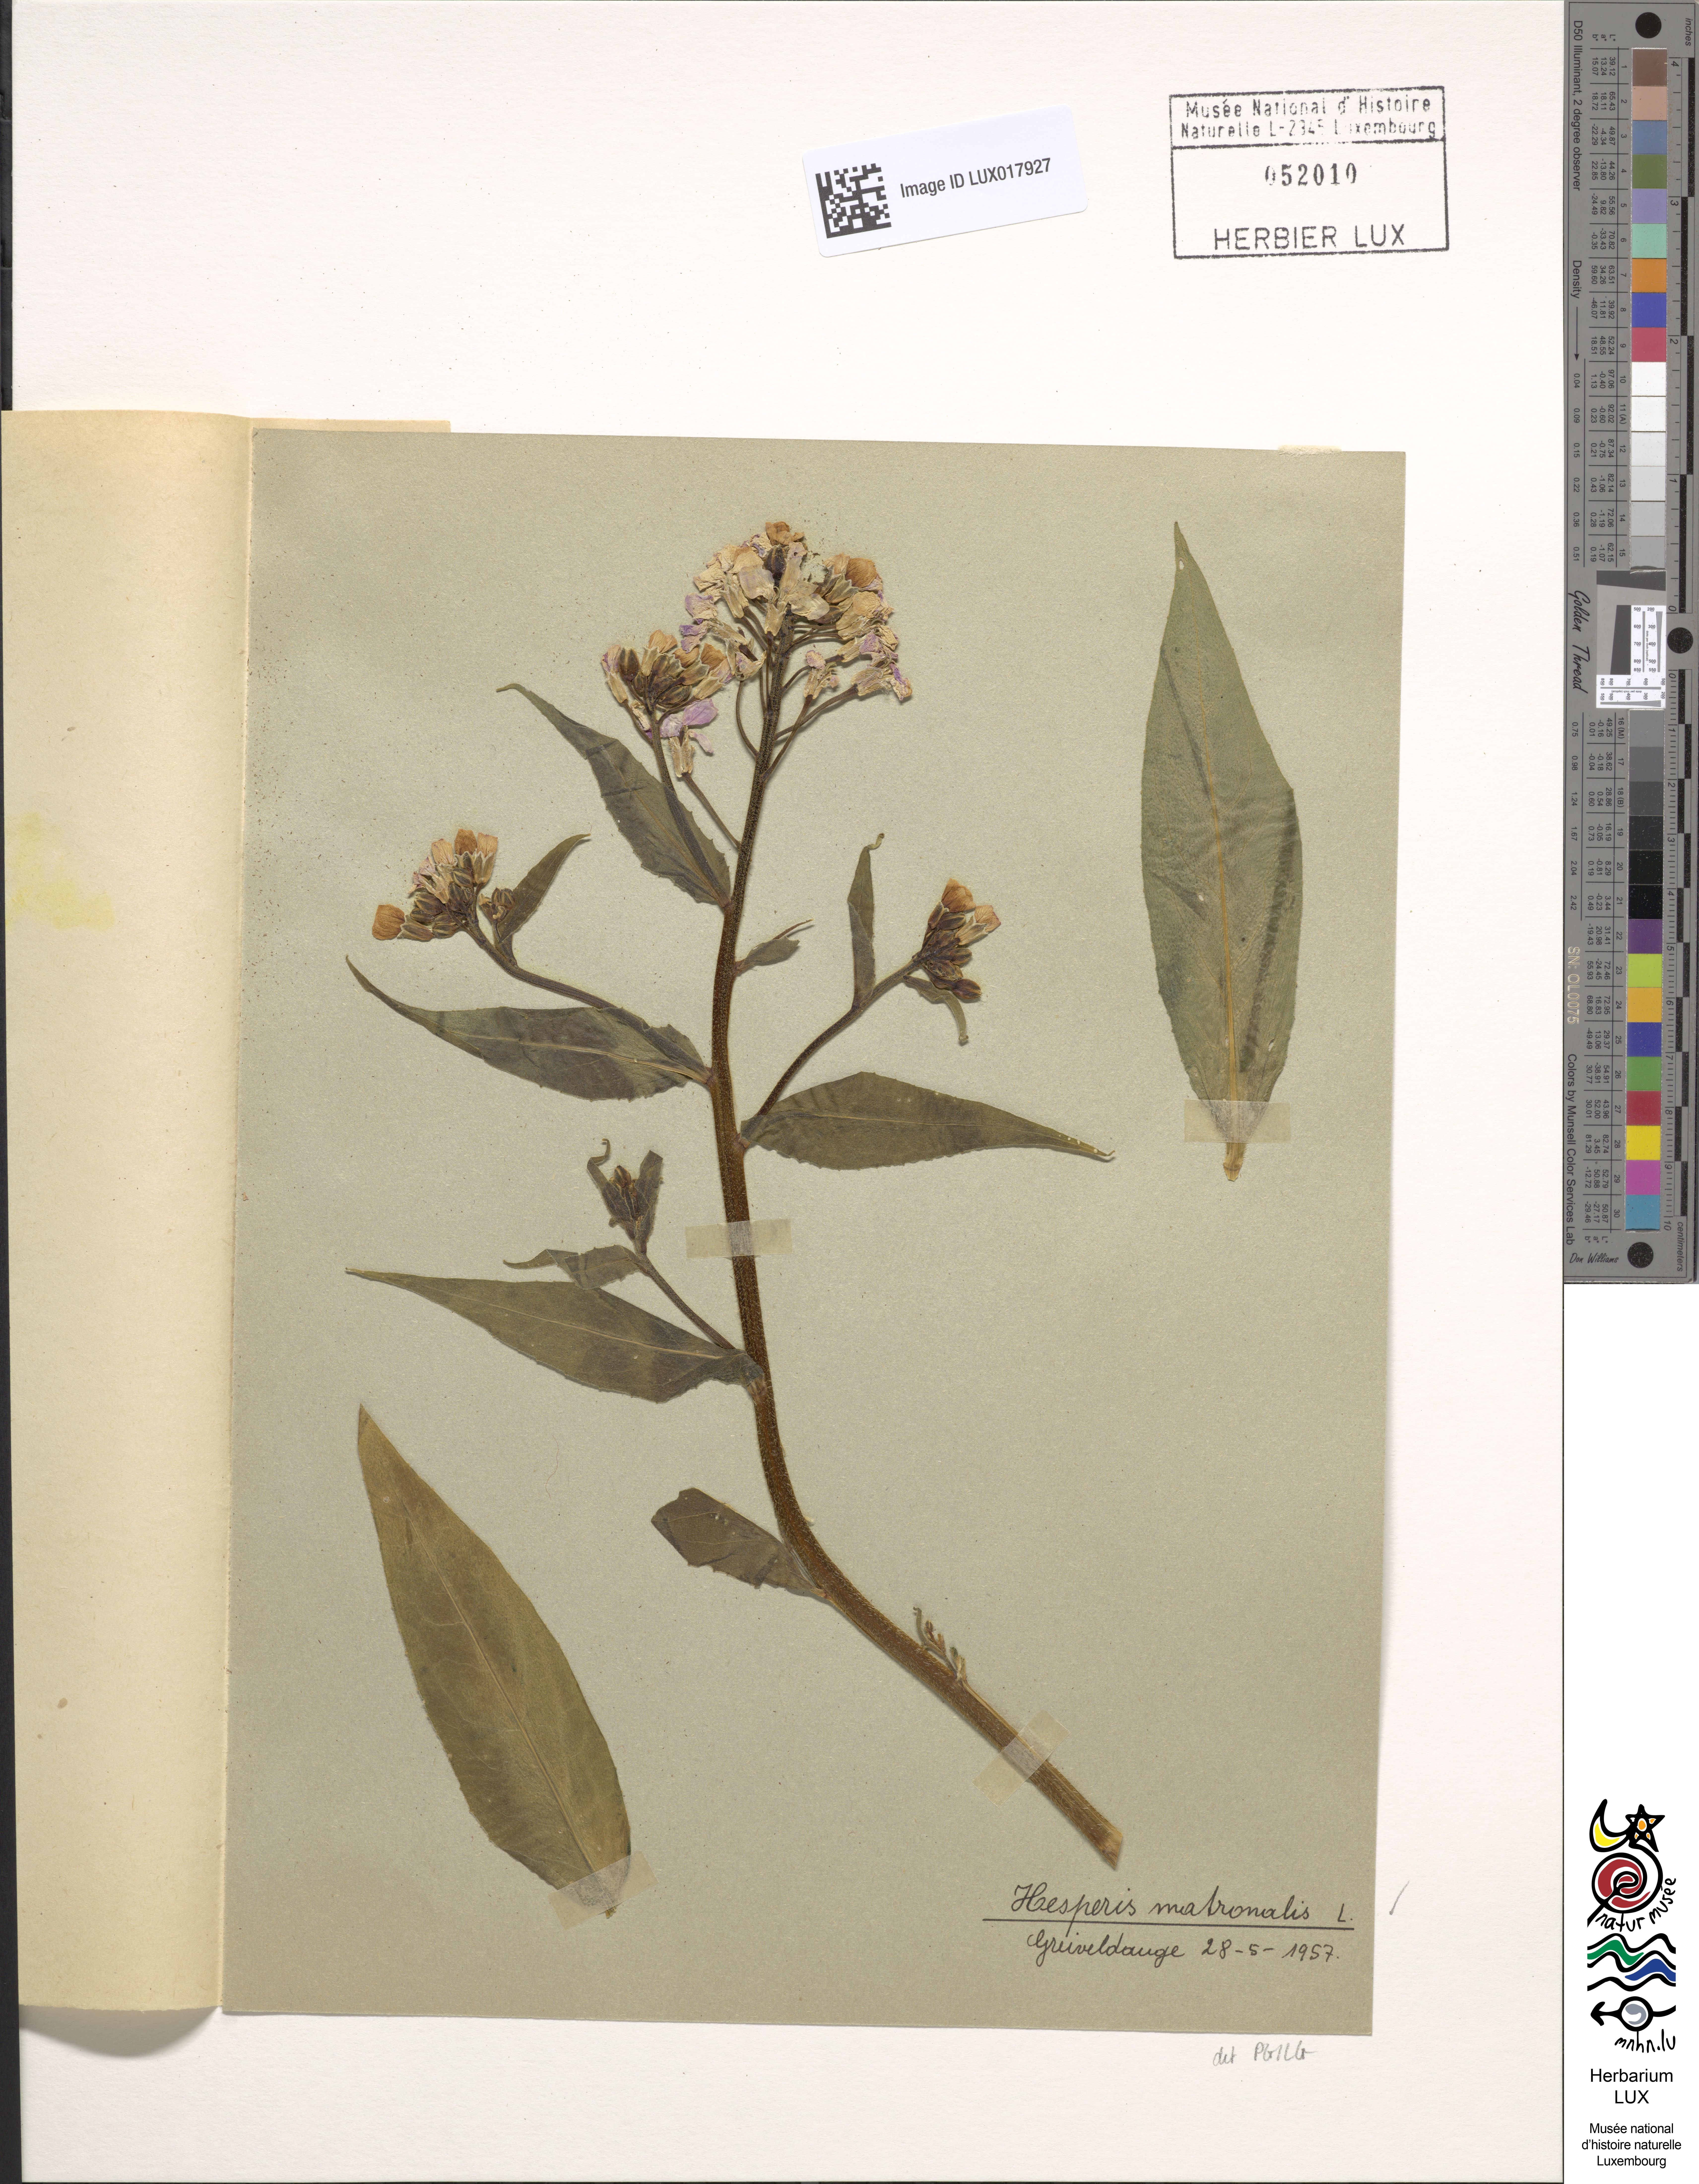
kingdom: Plantae
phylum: Tracheophyta
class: Magnoliopsida
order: Brassicales
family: Brassicaceae
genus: Hesperis
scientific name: Hesperis matronalis
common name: Dame's-violet
